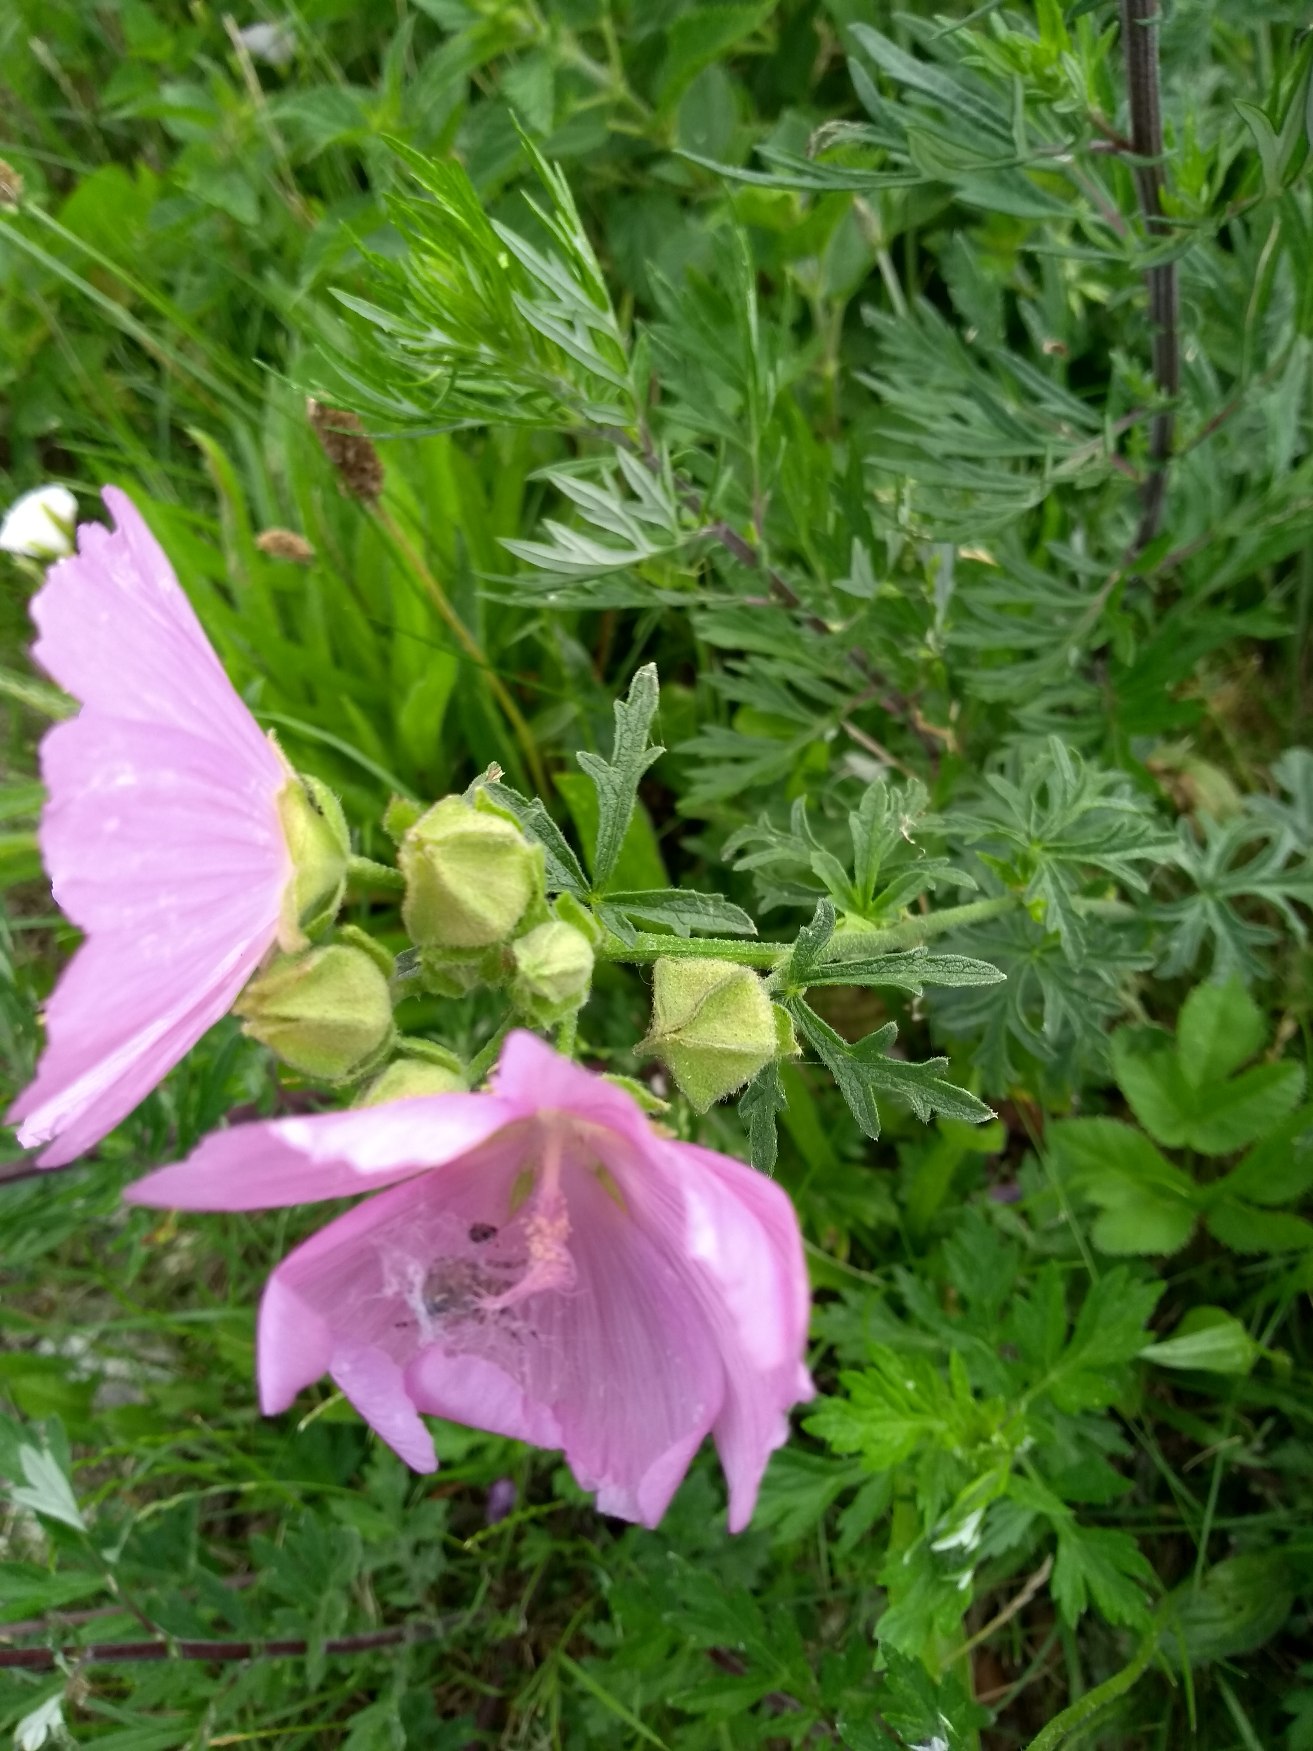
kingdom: Plantae
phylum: Tracheophyta
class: Magnoliopsida
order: Malvales
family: Malvaceae
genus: Malva
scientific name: Malva alcea
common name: Rosen-katost
